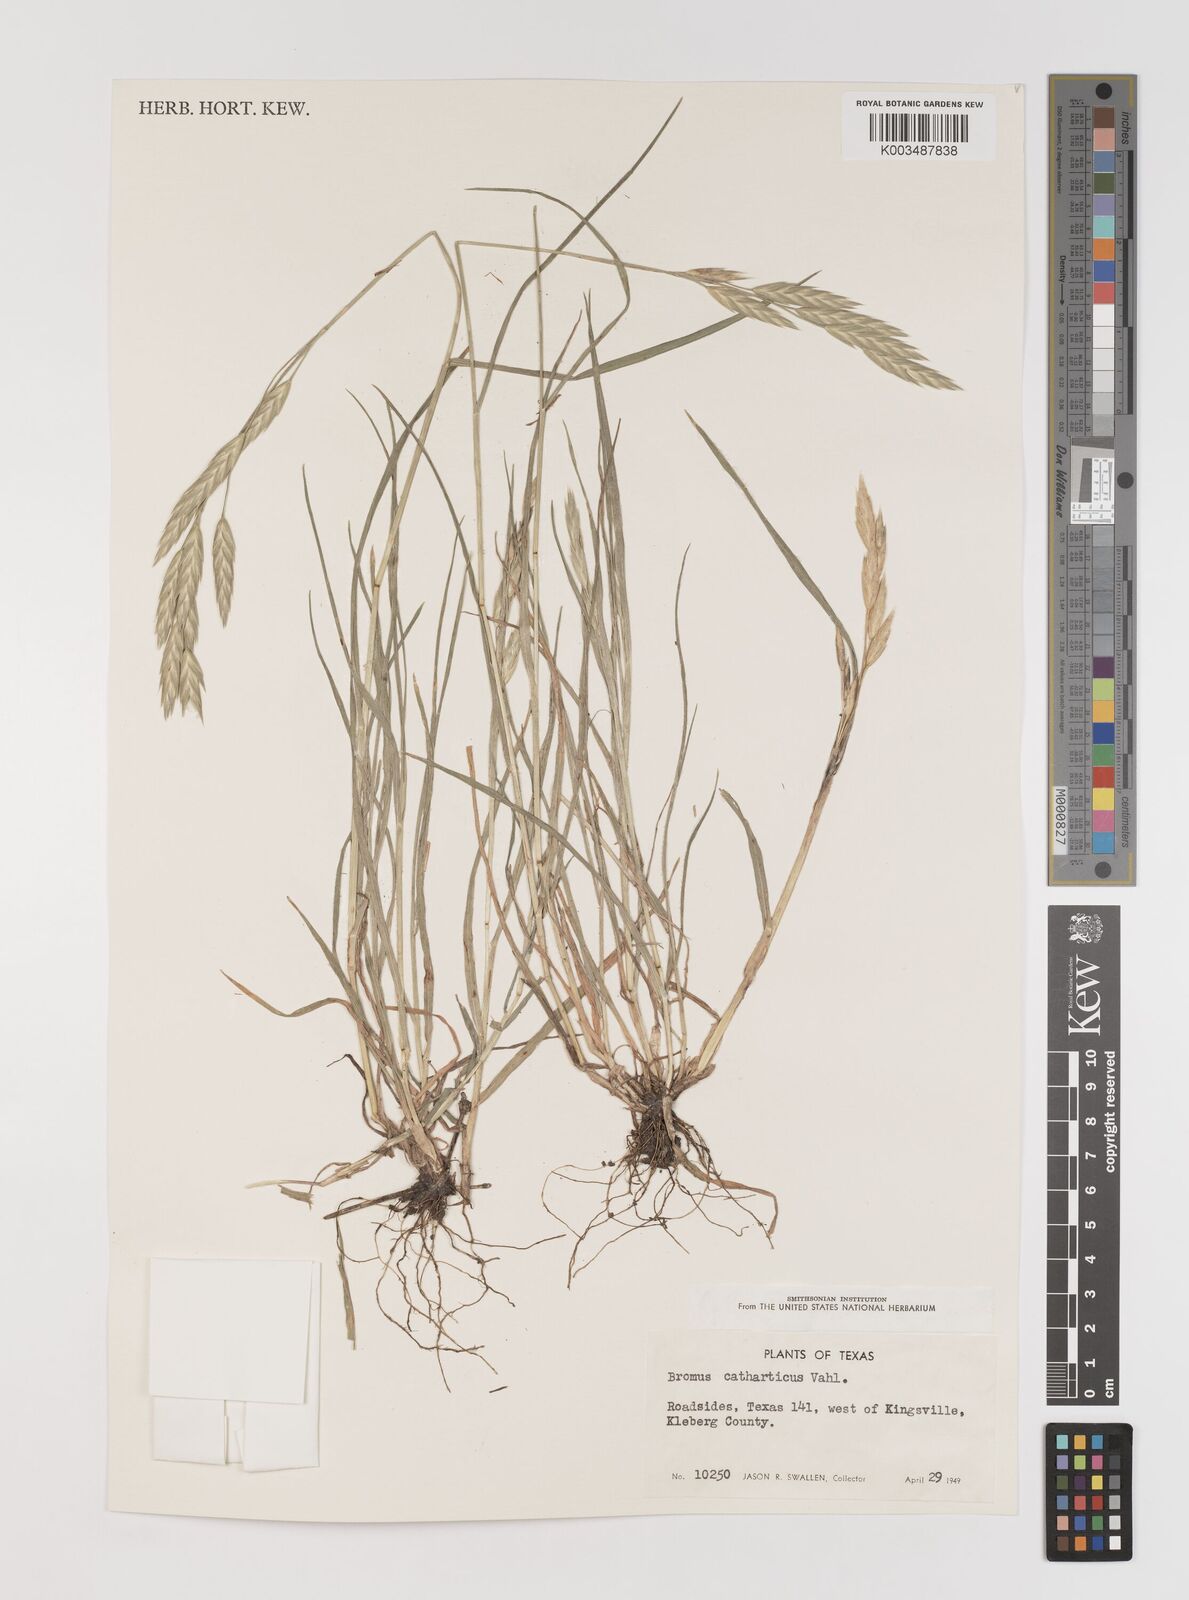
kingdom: Plantae
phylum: Tracheophyta
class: Liliopsida
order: Poales
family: Poaceae
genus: Bromus
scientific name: Bromus catharticus
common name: Rescuegrass
